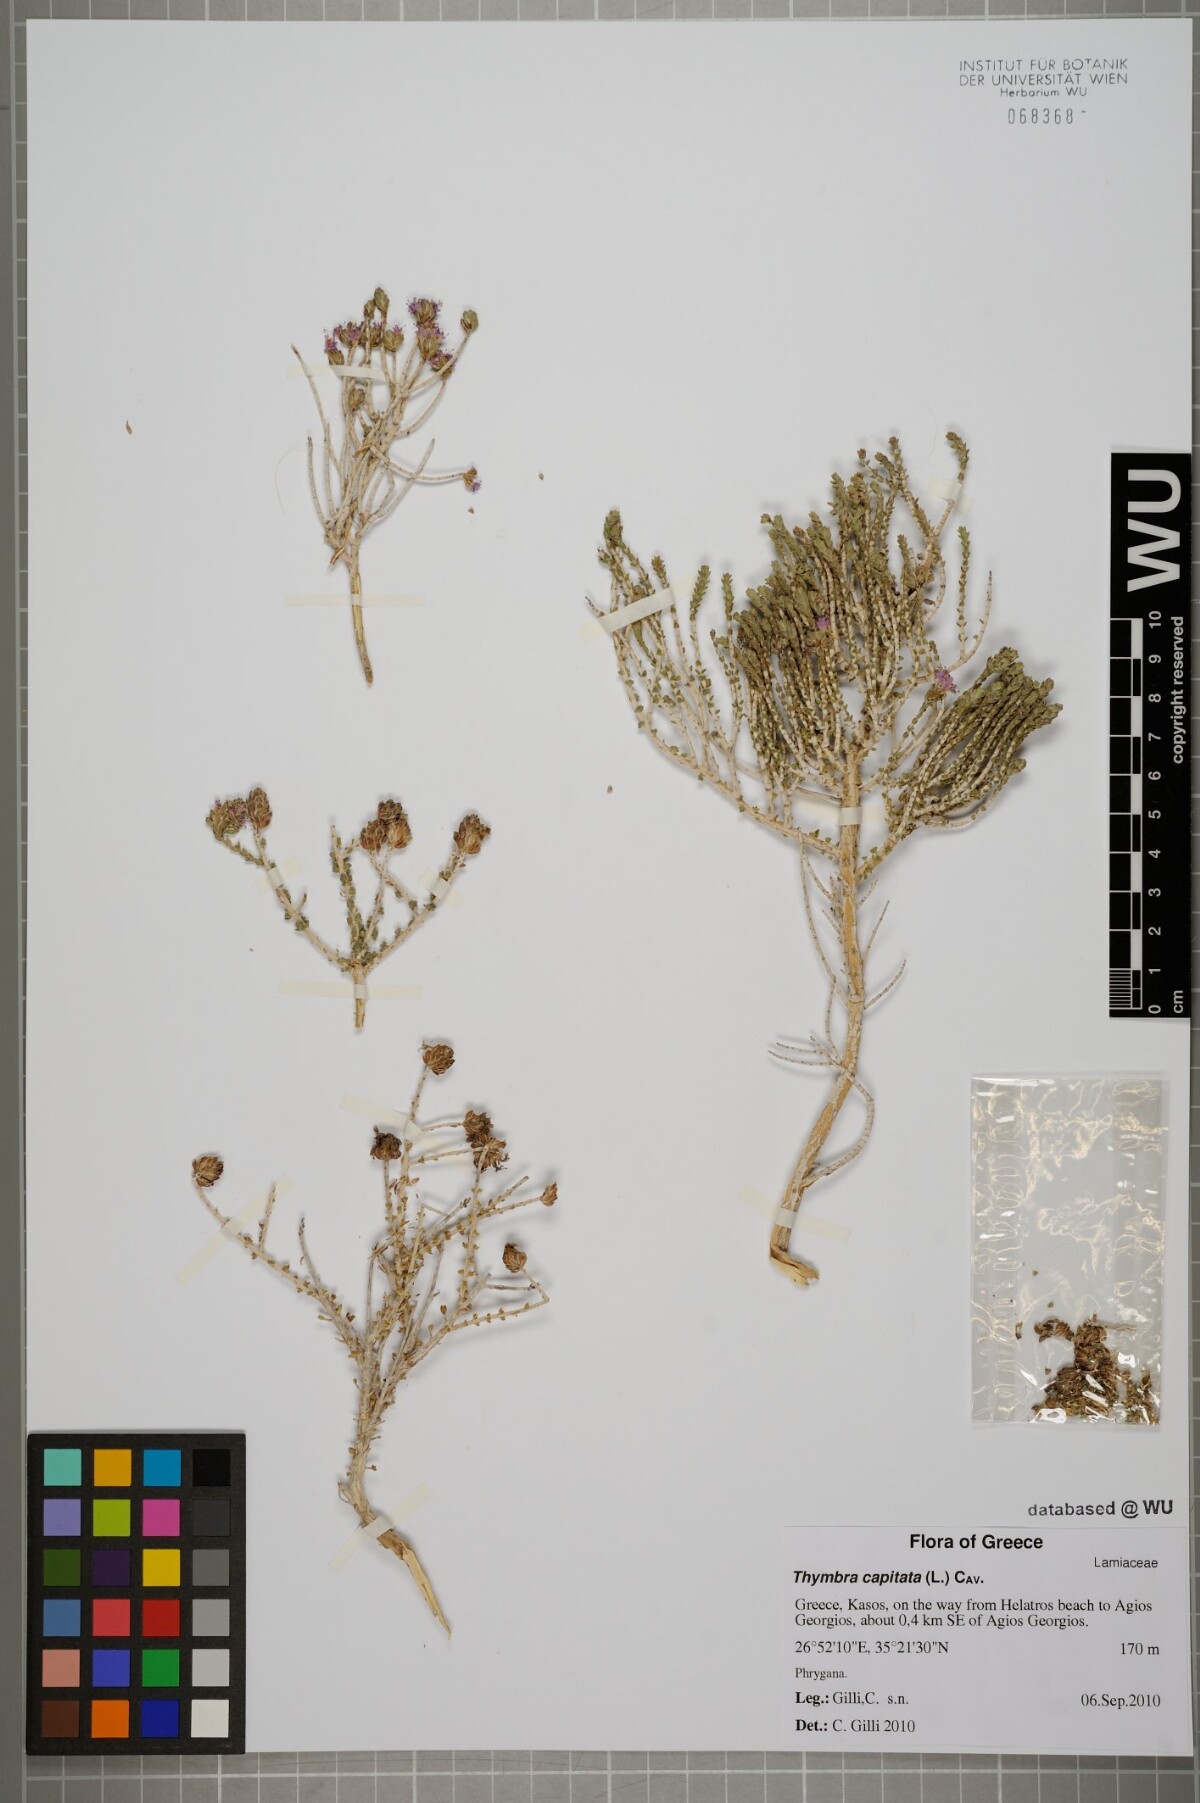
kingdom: Plantae
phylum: Tracheophyta
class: Magnoliopsida
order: Lamiales
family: Lamiaceae
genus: Thymbra
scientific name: Thymbra capitata
